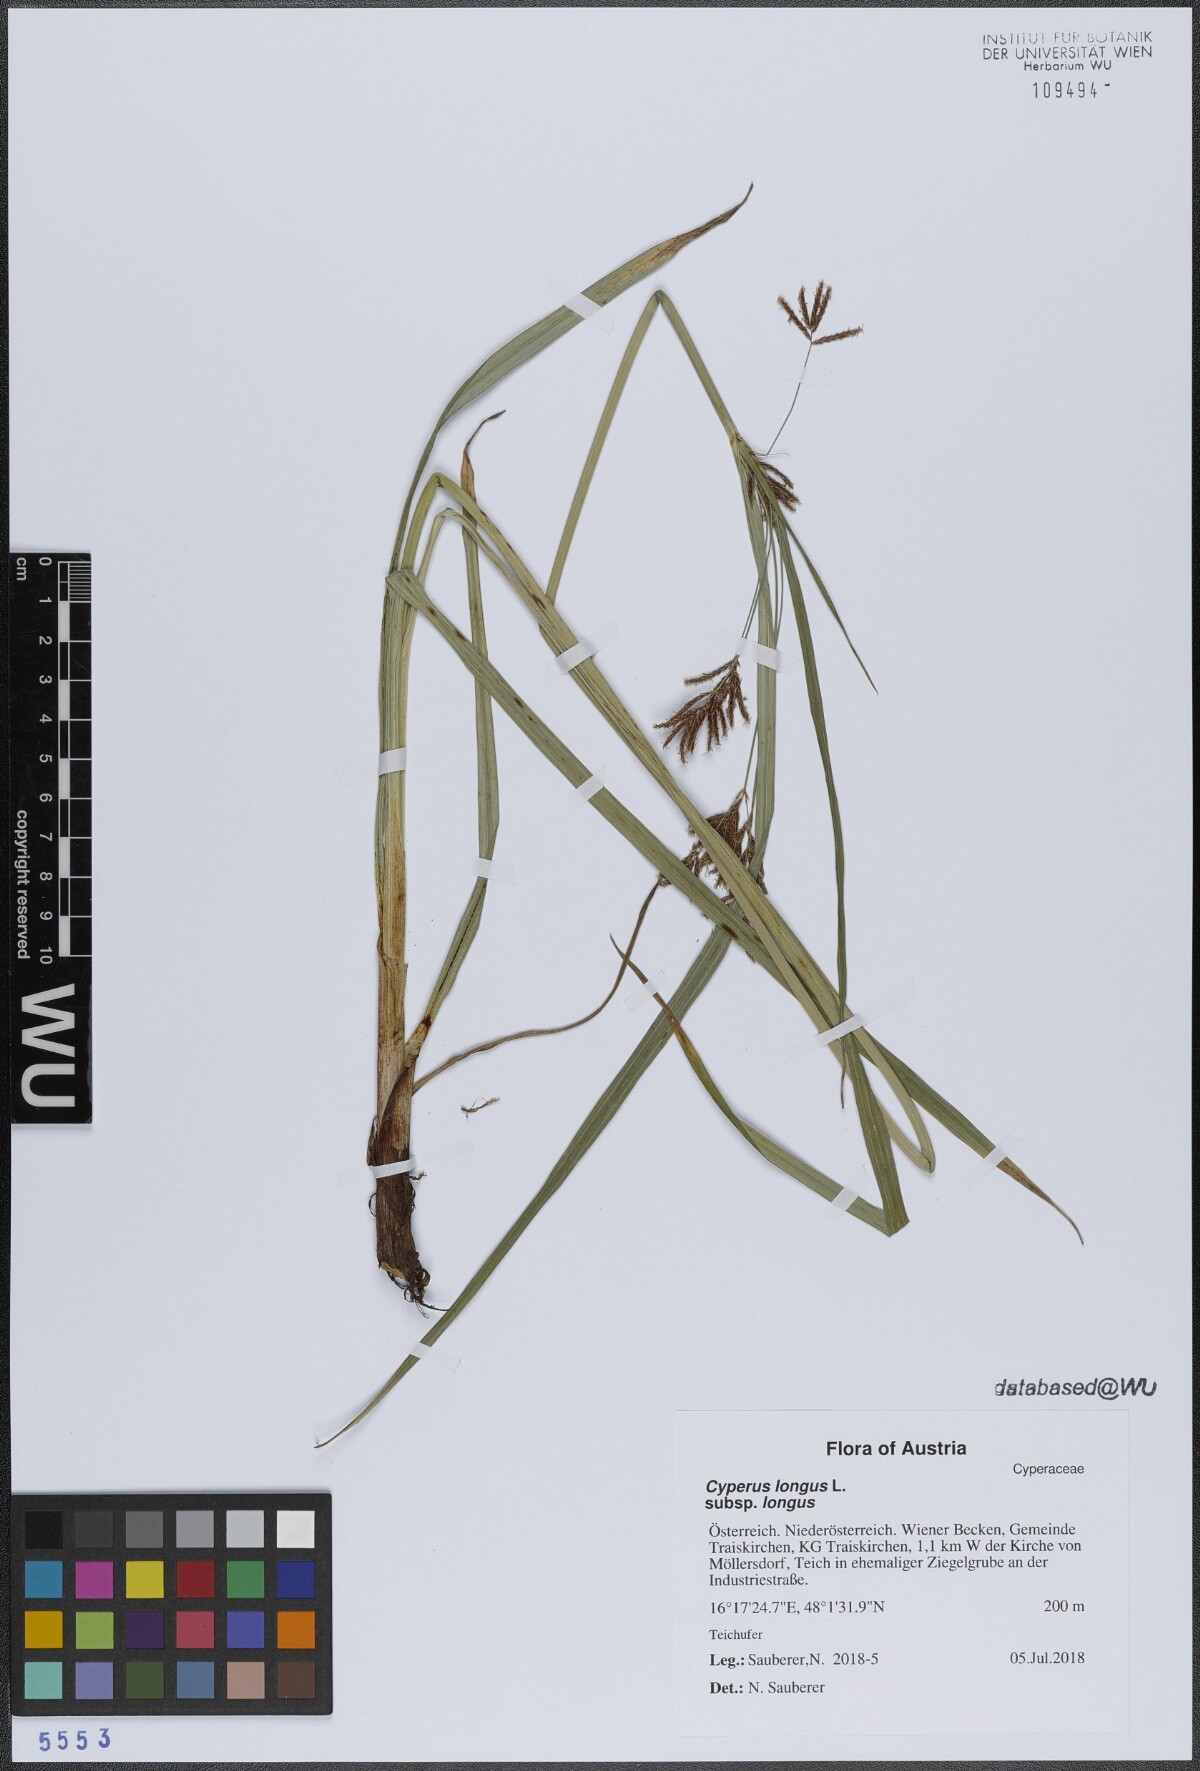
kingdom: Plantae
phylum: Tracheophyta
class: Liliopsida
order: Poales
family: Cyperaceae
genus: Cyperus
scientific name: Cyperus longus
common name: Galingale
